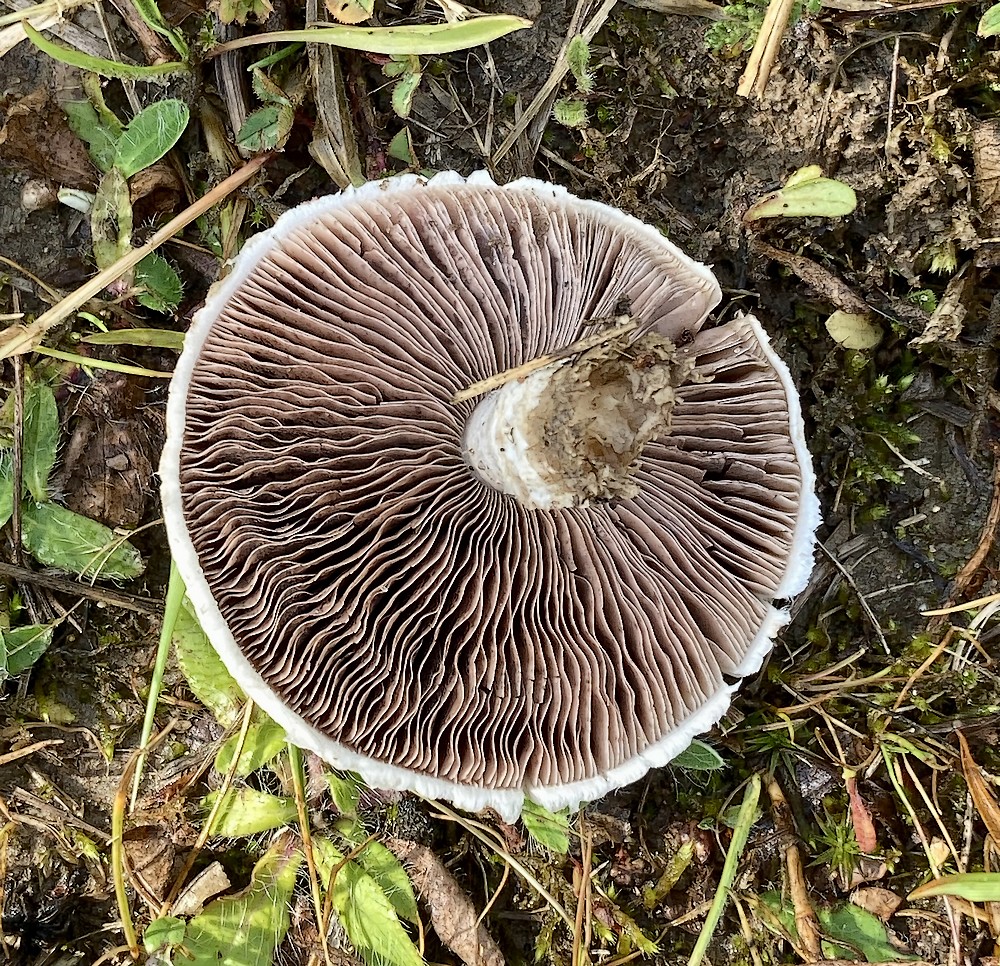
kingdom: Fungi
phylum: Basidiomycota
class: Agaricomycetes
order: Agaricales
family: Agaricaceae
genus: Agaricus
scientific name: Agaricus
